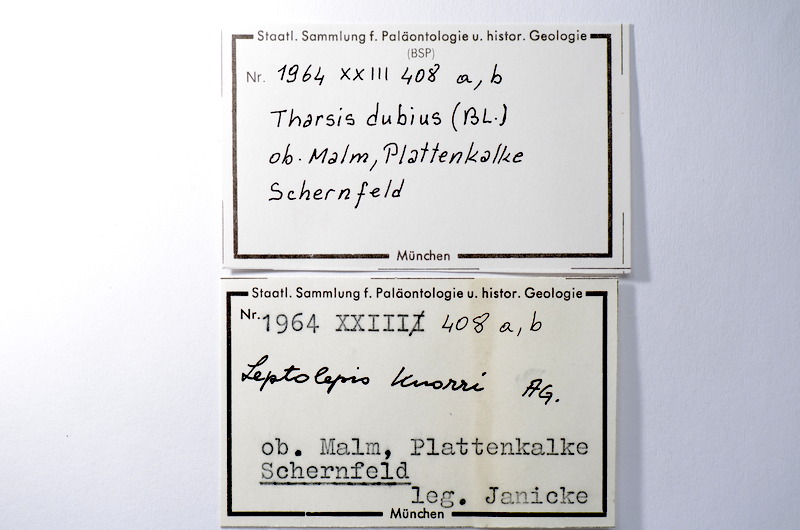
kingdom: Animalia
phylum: Chordata
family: Ascalaboidae
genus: Tharsis
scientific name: Tharsis dubius
